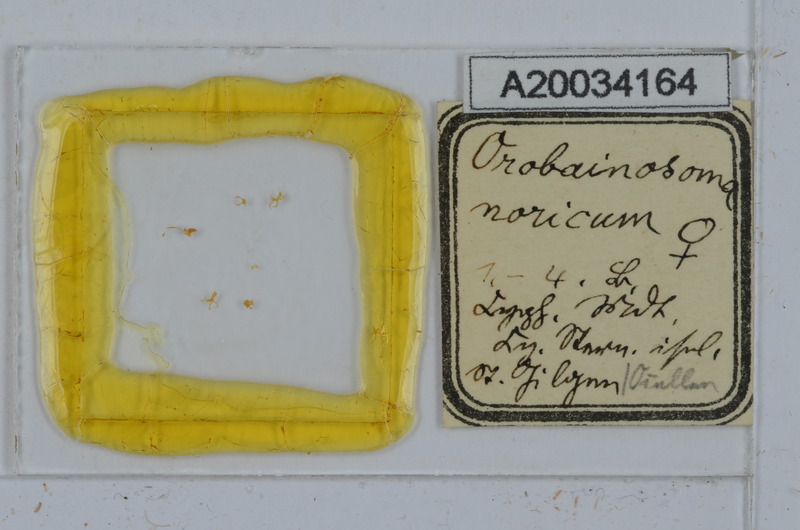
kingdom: Animalia
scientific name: Animalia
